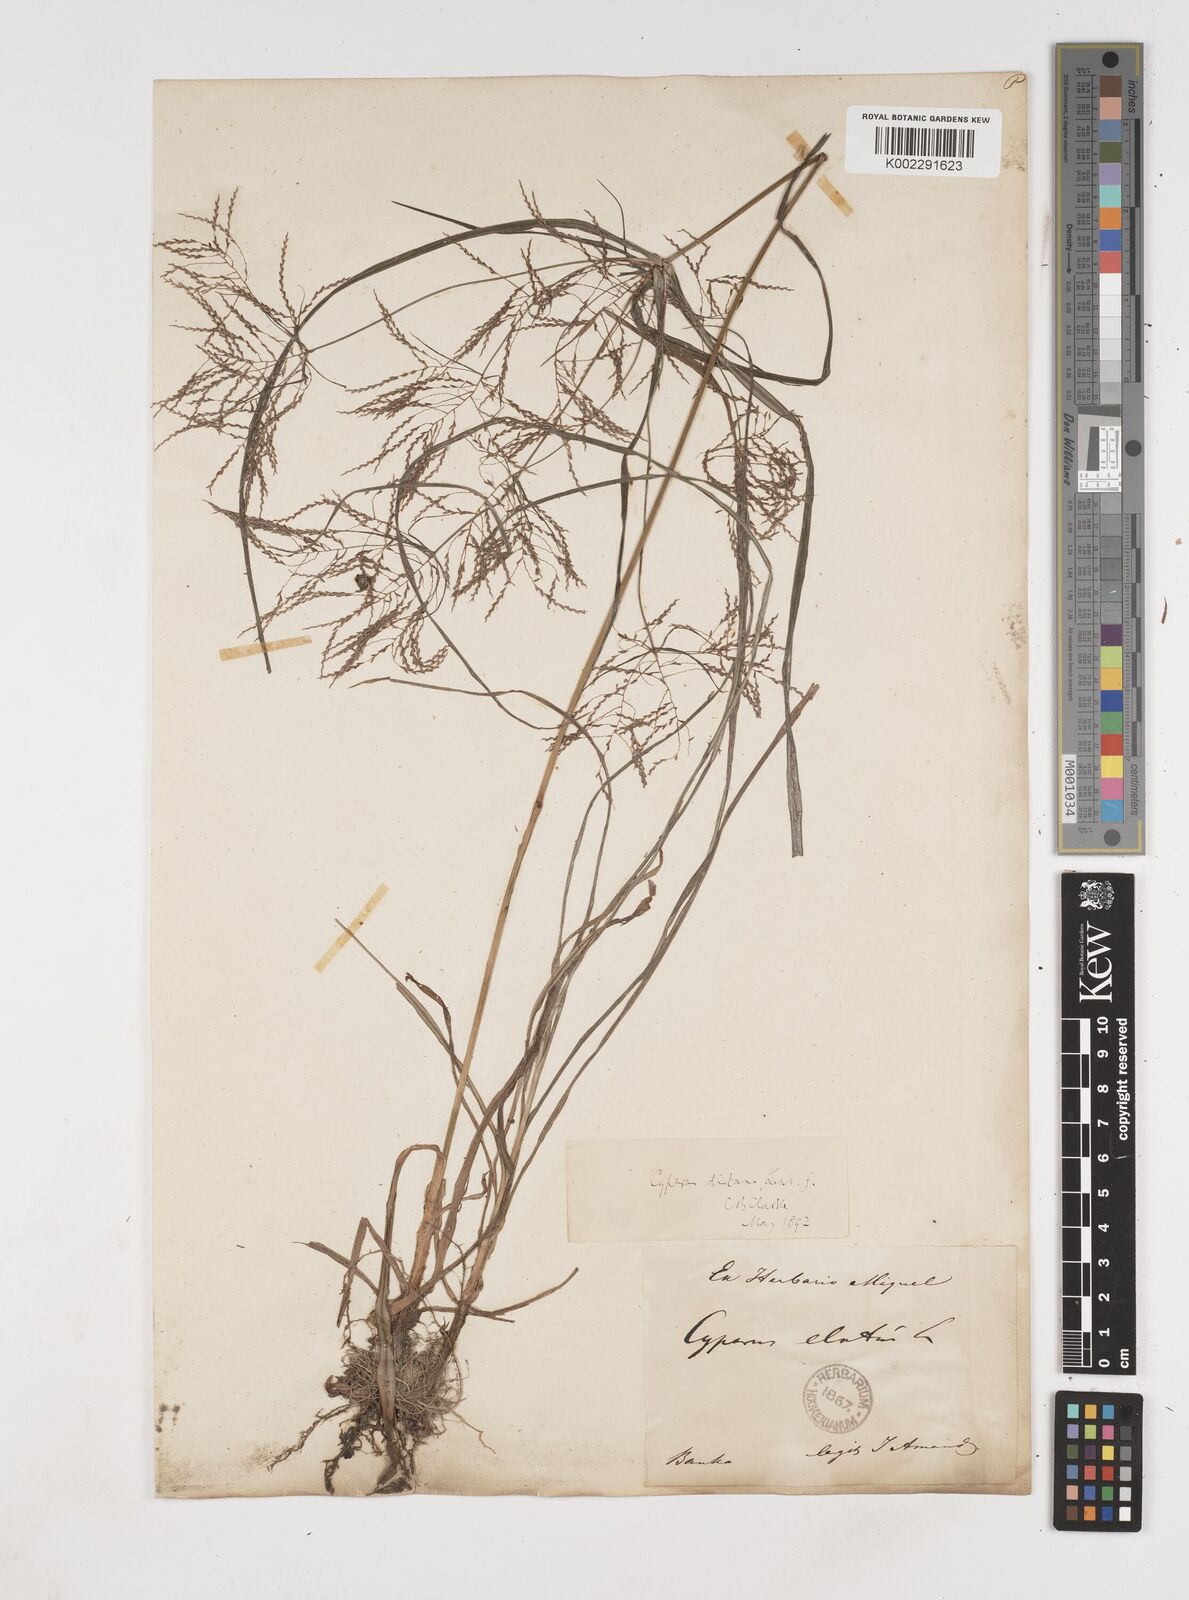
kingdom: Plantae
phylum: Tracheophyta
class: Liliopsida
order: Poales
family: Cyperaceae
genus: Cyperus
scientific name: Cyperus distans
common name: Slender cyperus
